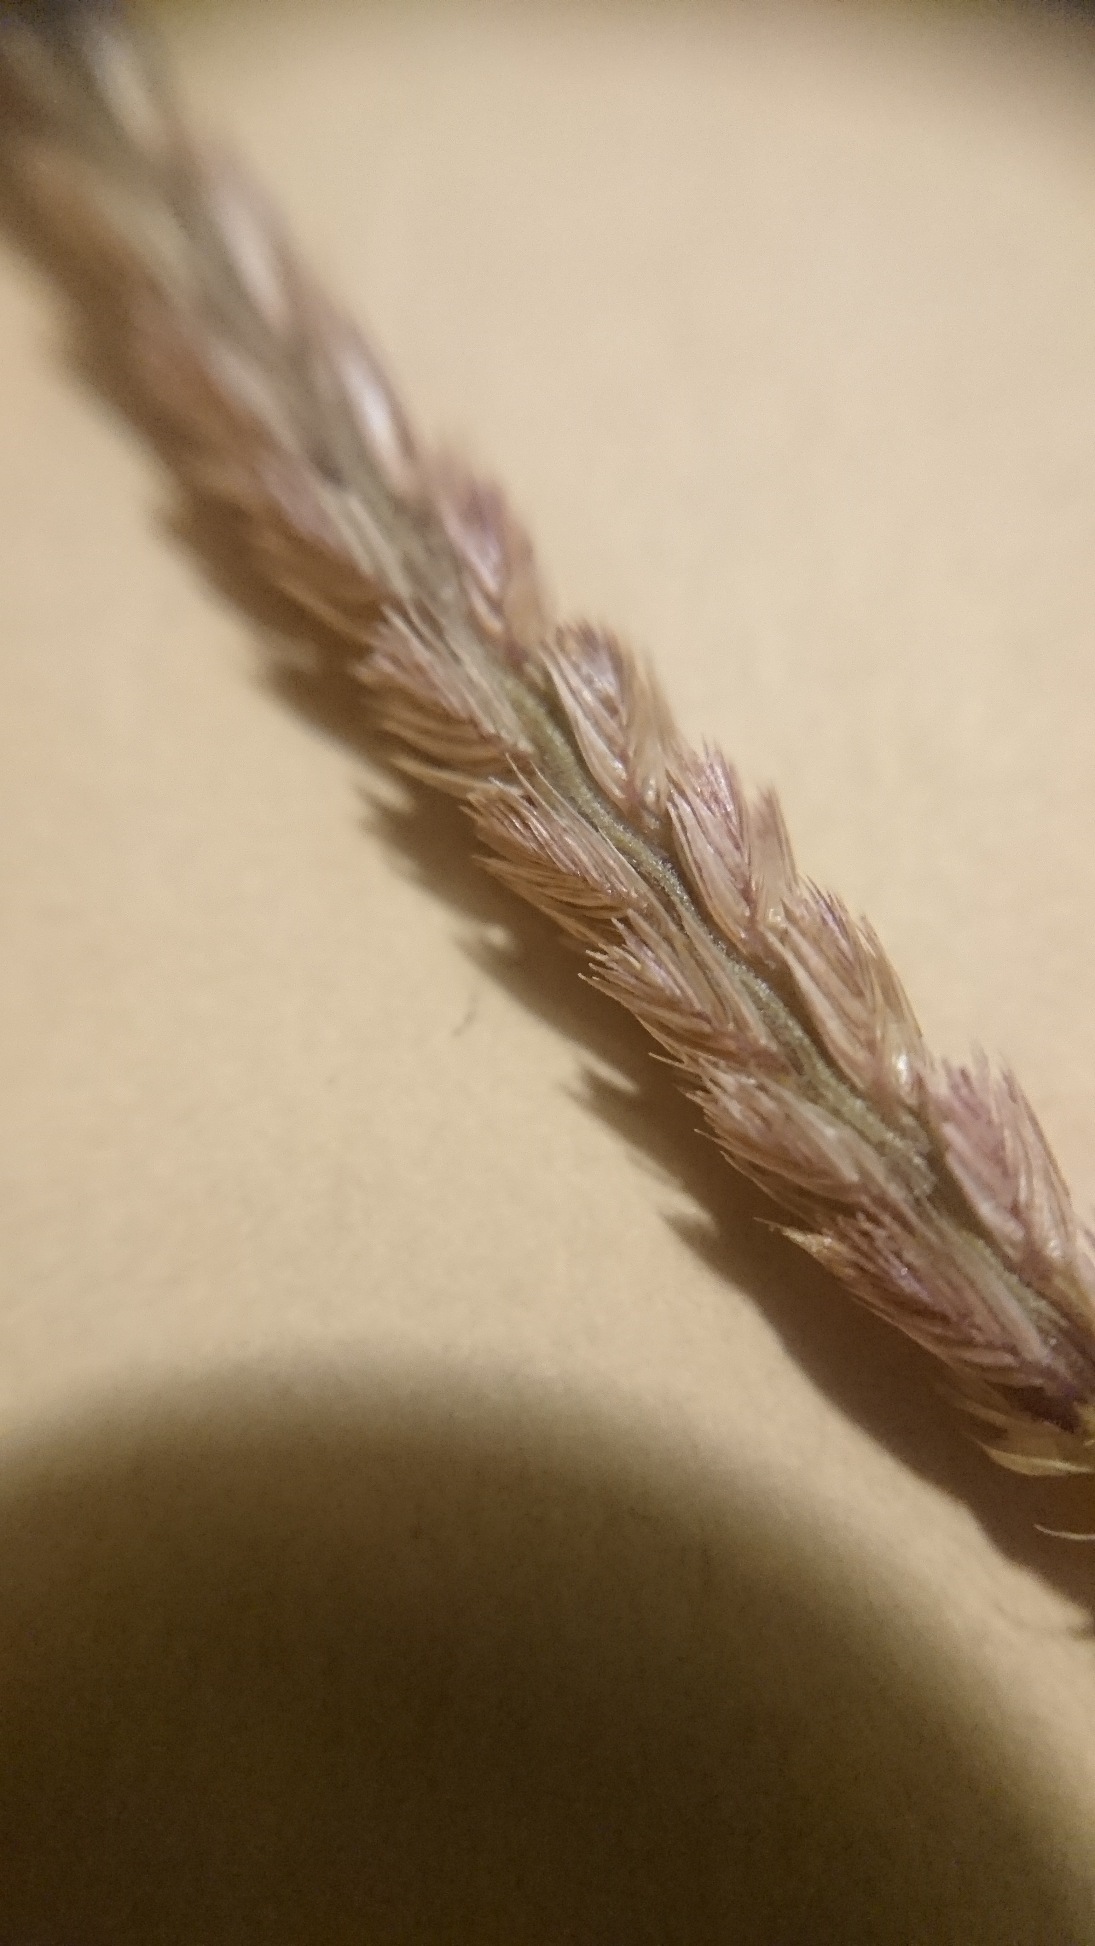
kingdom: Plantae
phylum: Tracheophyta
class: Liliopsida
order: Poales
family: Poaceae
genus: Cynosurus
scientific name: Cynosurus cristatus
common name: Kamgræs
